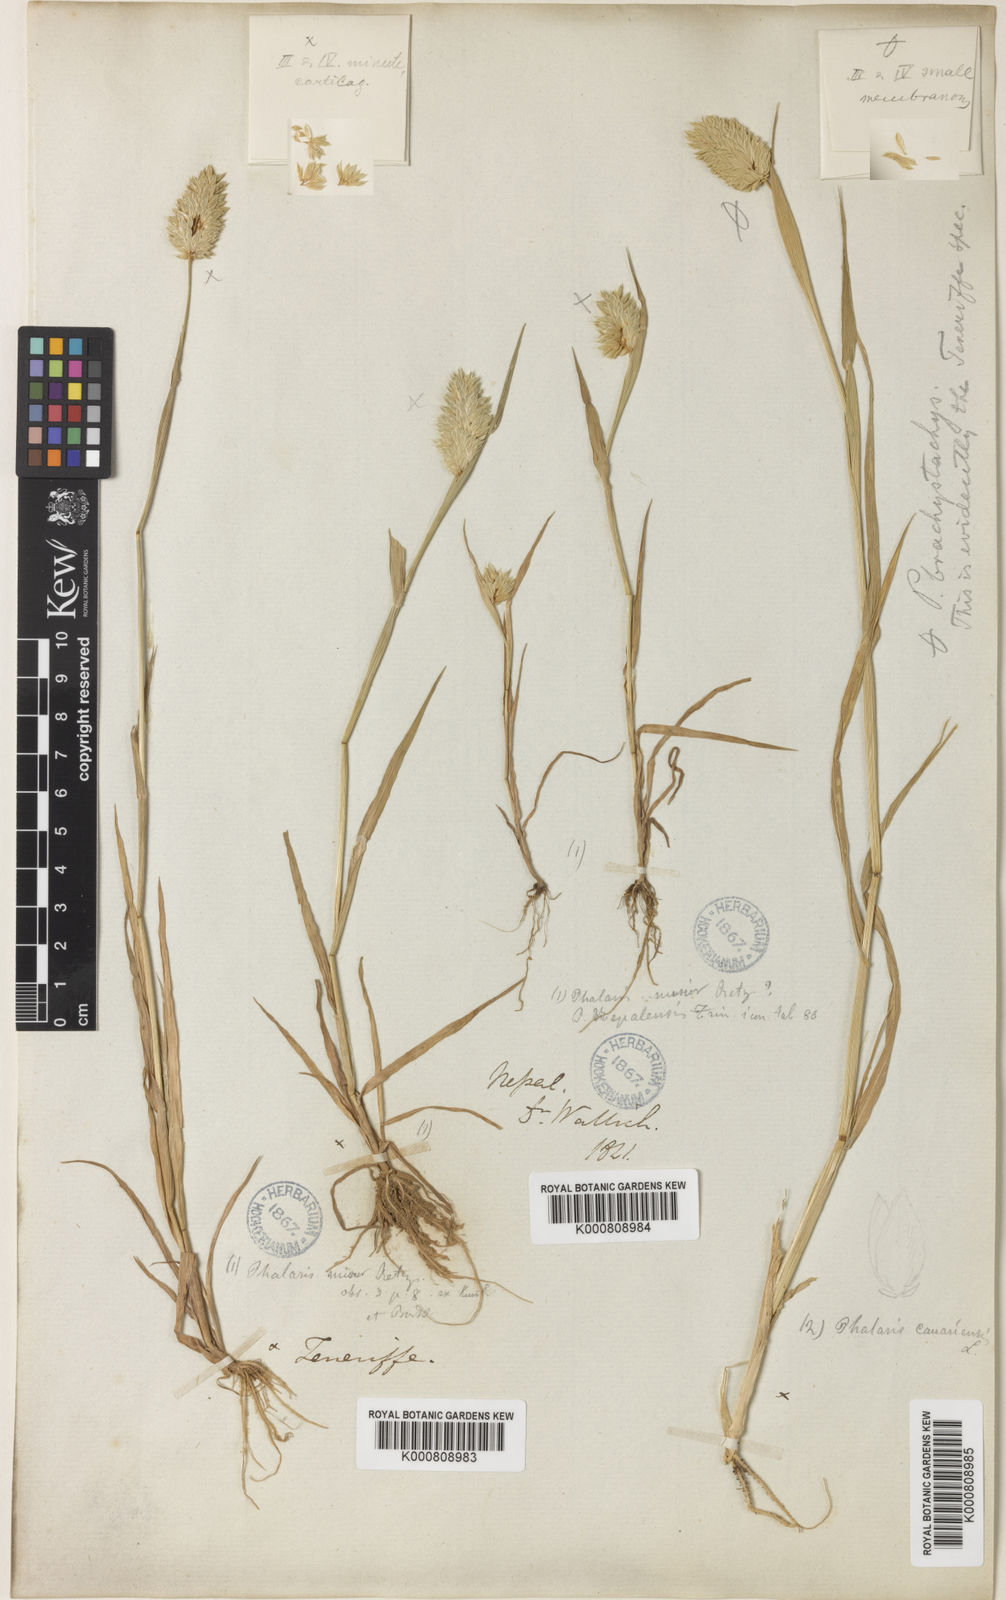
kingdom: Plantae
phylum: Tracheophyta
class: Liliopsida
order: Poales
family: Poaceae
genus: Phalaris
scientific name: Phalaris minor
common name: Littleseed canarygrass
